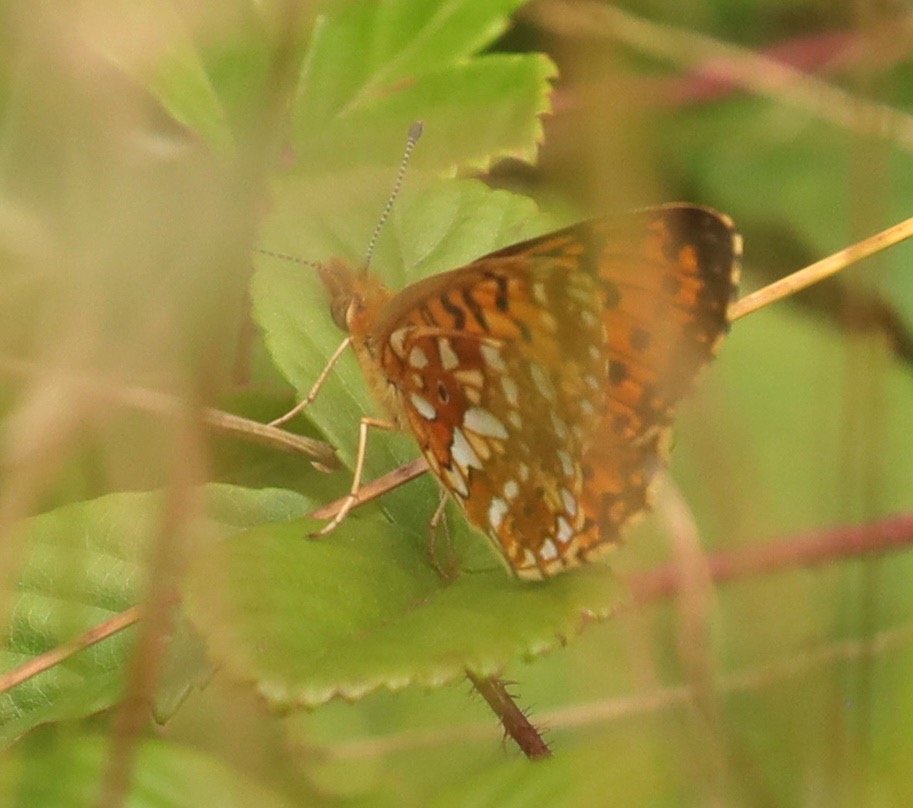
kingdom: Animalia
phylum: Arthropoda
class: Insecta
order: Lepidoptera
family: Nymphalidae
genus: Boloria
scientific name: Boloria selene
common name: Silver-bordered Fritillary
